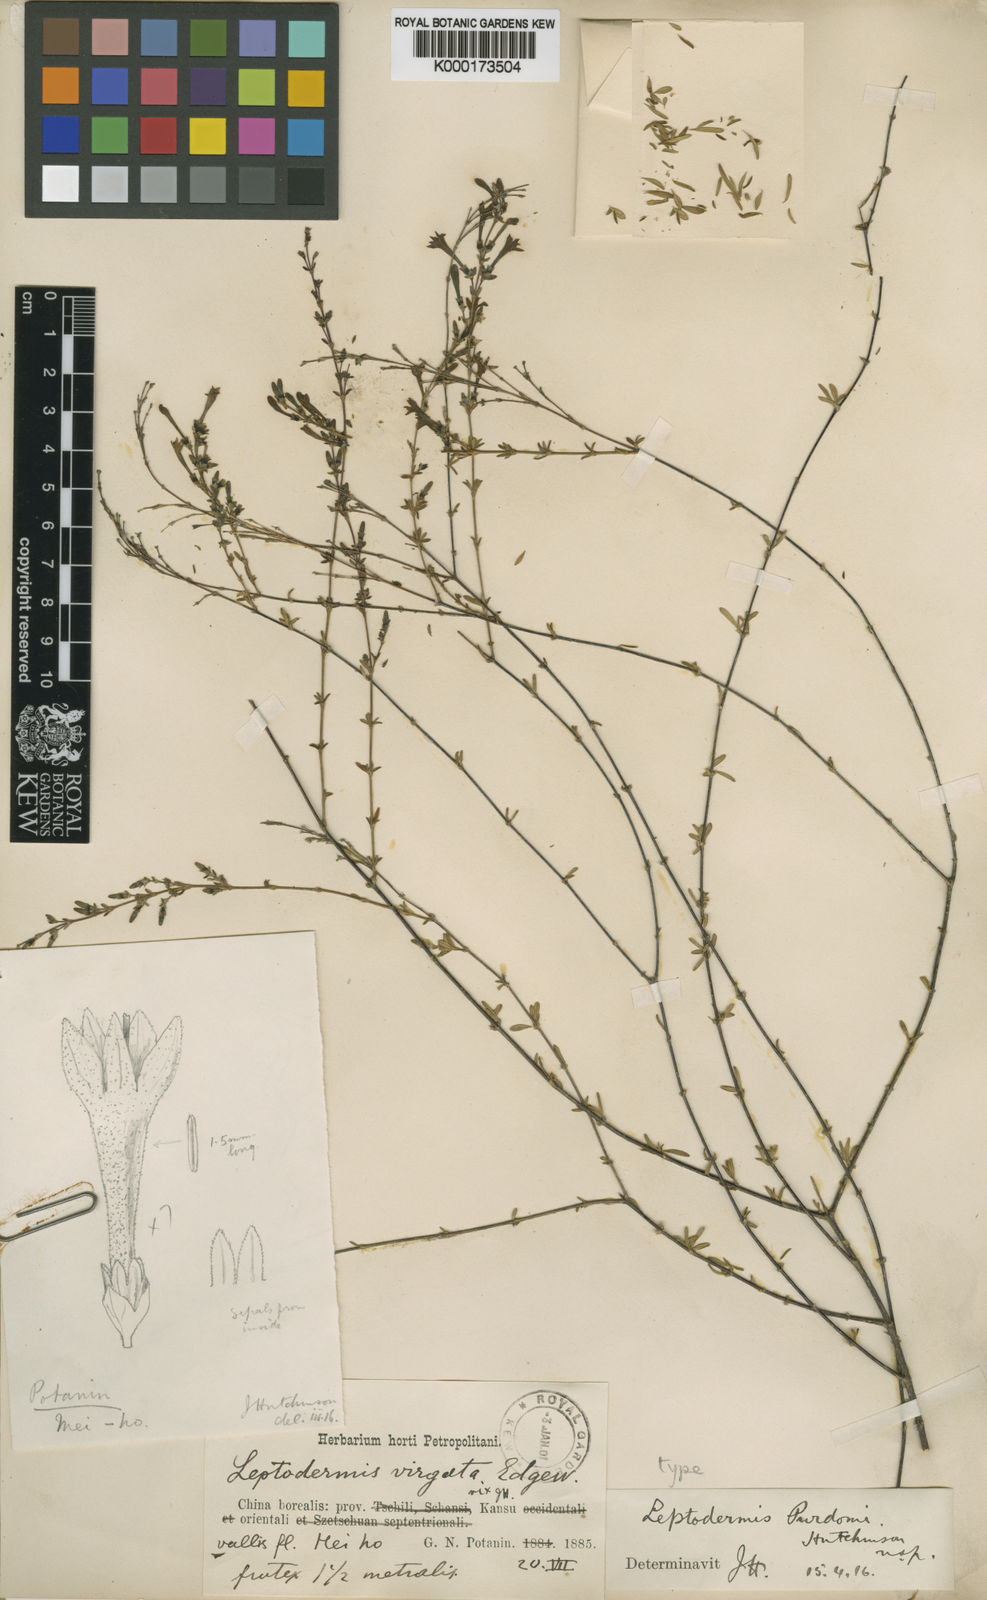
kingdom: Plantae
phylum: Tracheophyta
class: Magnoliopsida
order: Gentianales
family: Rubiaceae
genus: Leptodermis
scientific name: Leptodermis purdomii
